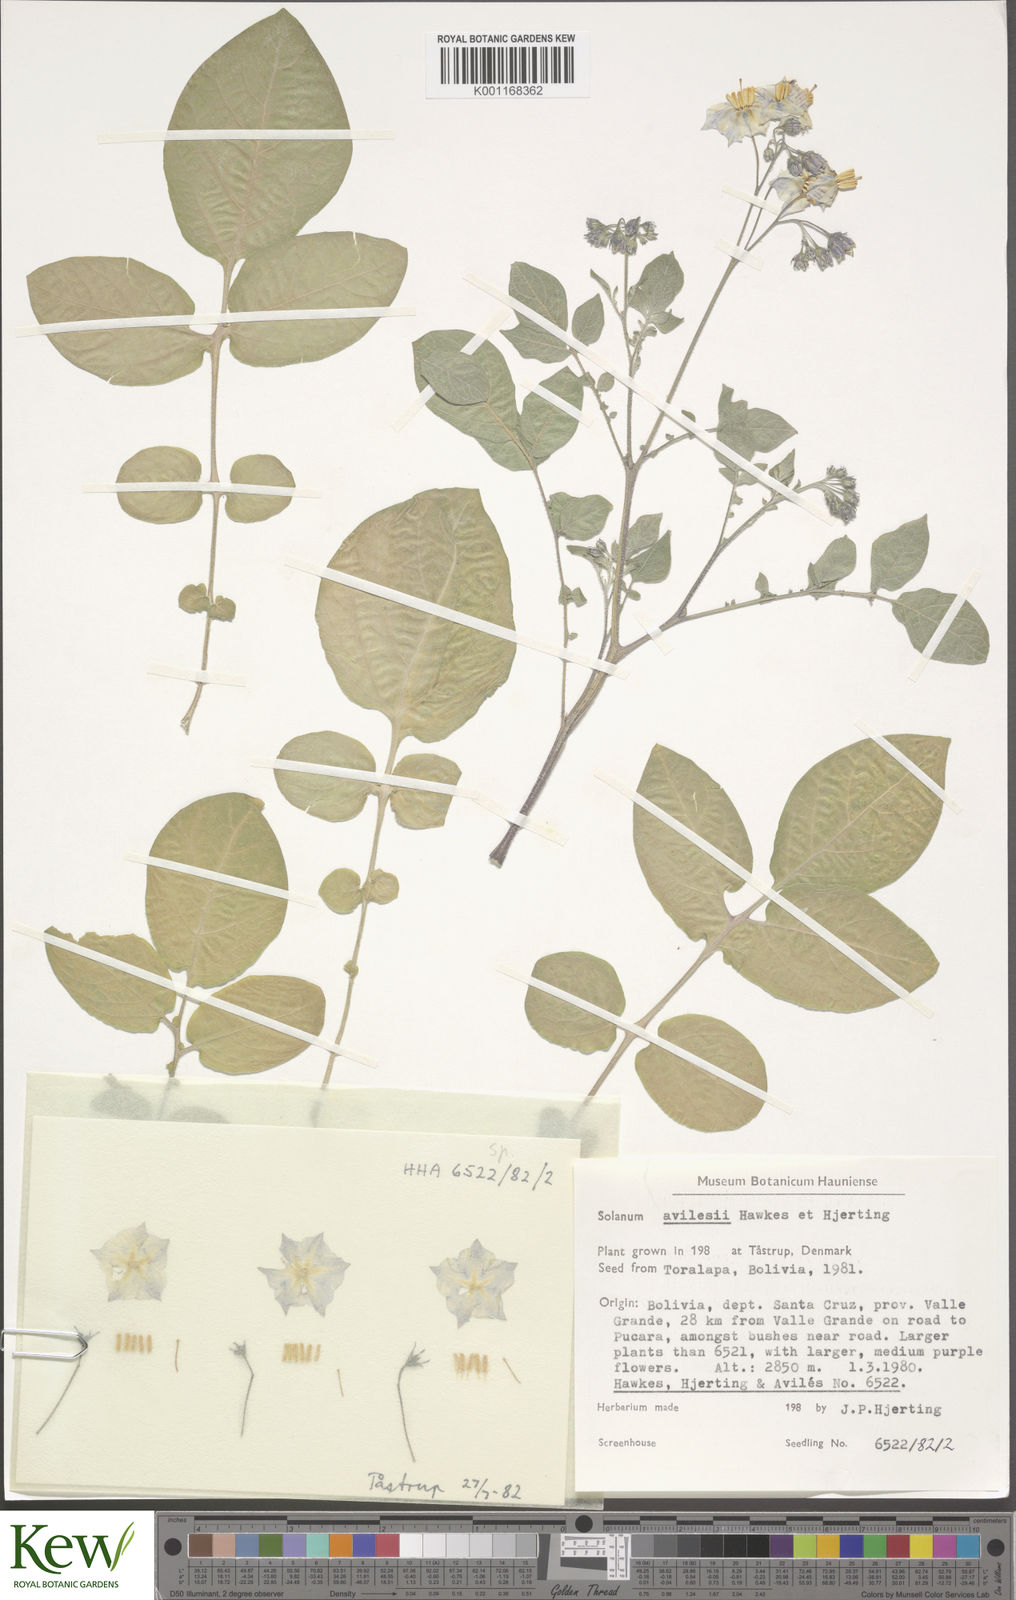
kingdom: Plantae
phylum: Tracheophyta
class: Magnoliopsida
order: Solanales
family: Solanaceae
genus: Solanum
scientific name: Solanum brevicaule
